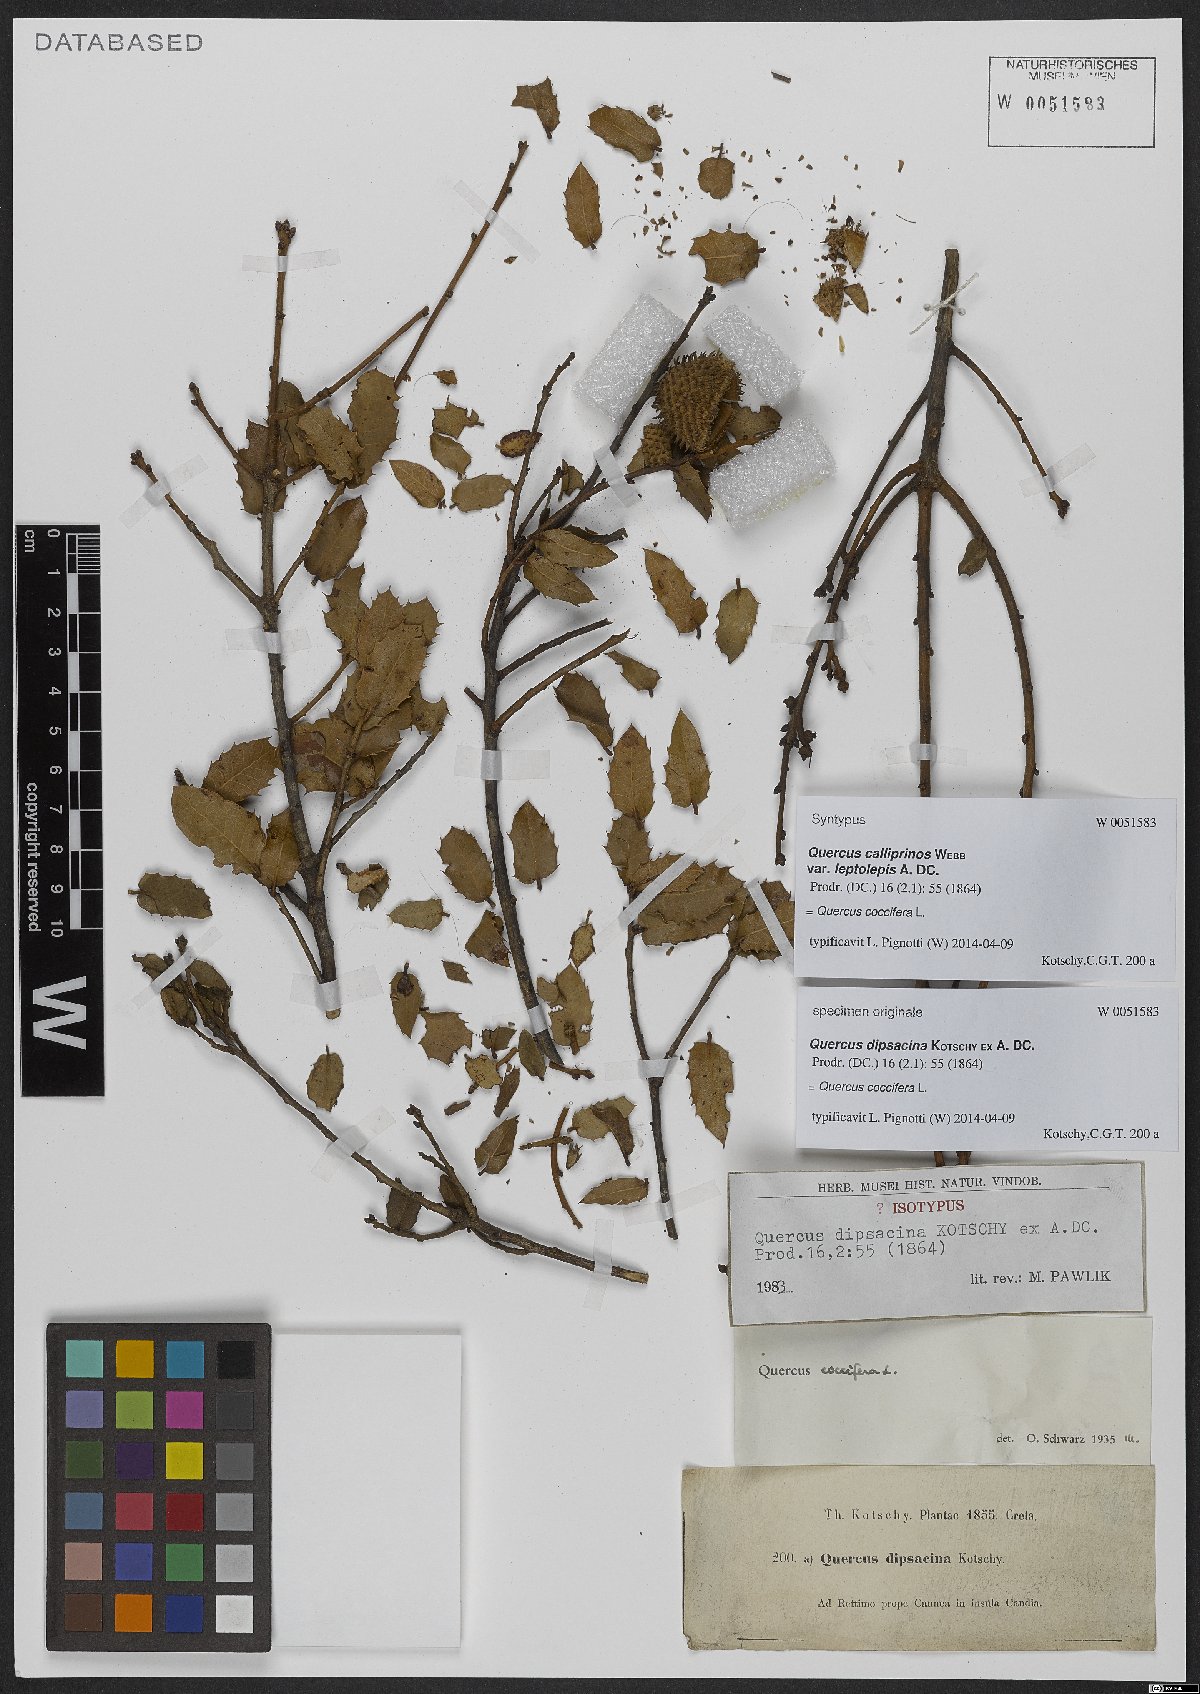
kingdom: Plantae
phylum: Tracheophyta
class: Magnoliopsida
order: Fagales
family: Fagaceae
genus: Quercus
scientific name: Quercus coccifera
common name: Kermes oak
